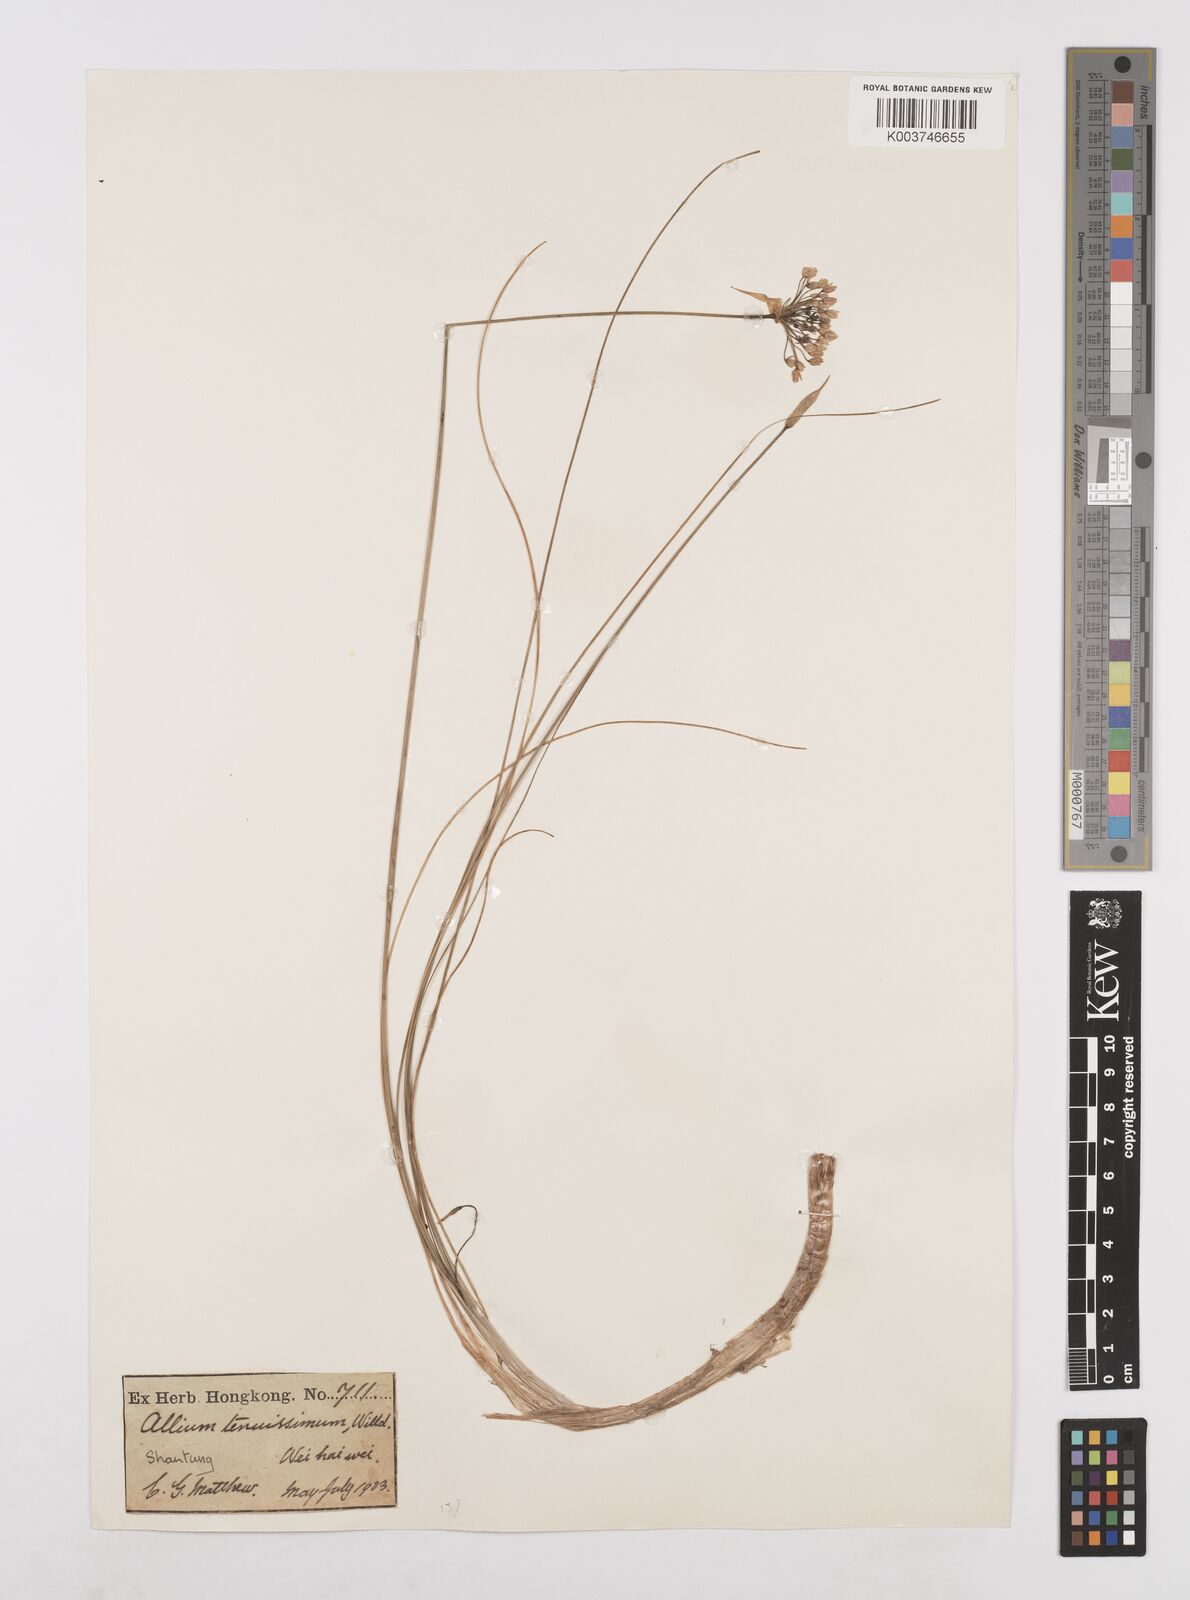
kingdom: Plantae
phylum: Tracheophyta
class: Liliopsida
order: Asparagales
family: Amaryllidaceae
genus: Allium
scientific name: Allium anisopodium
